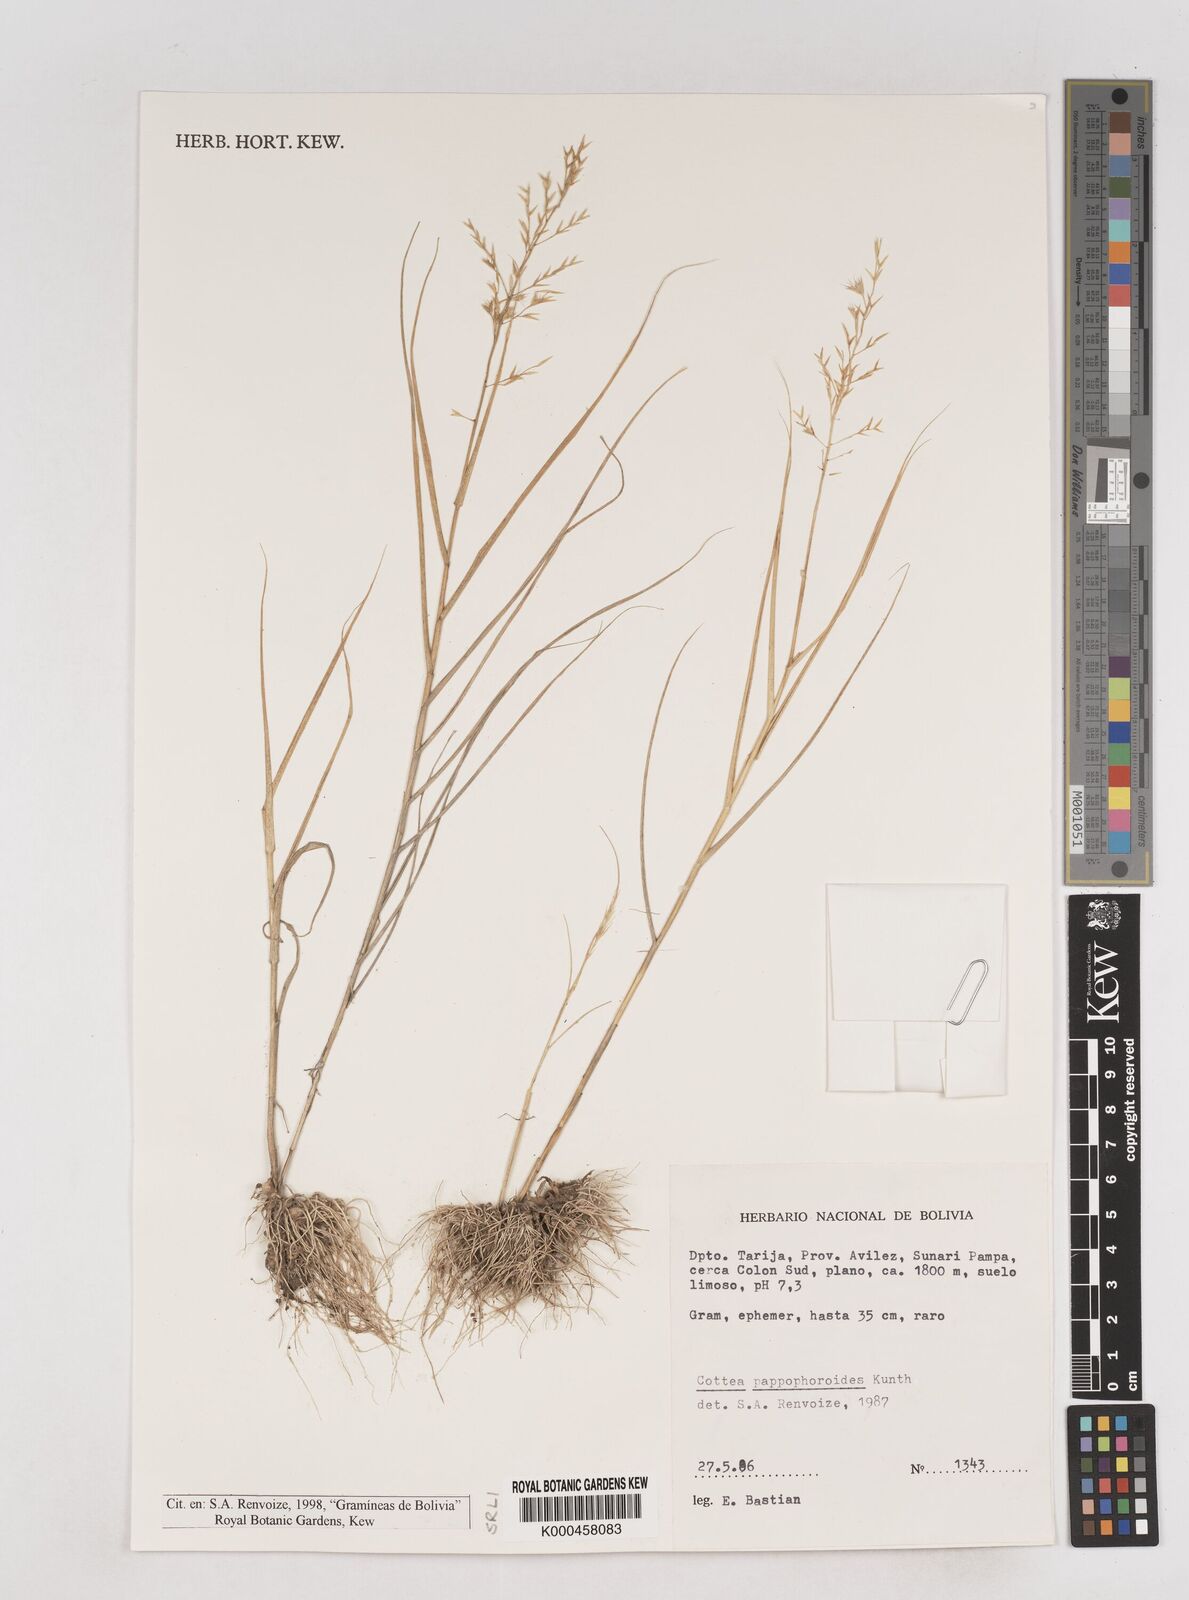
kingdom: Plantae
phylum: Tracheophyta
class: Liliopsida
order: Poales
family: Poaceae
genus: Cottea
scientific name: Cottea
